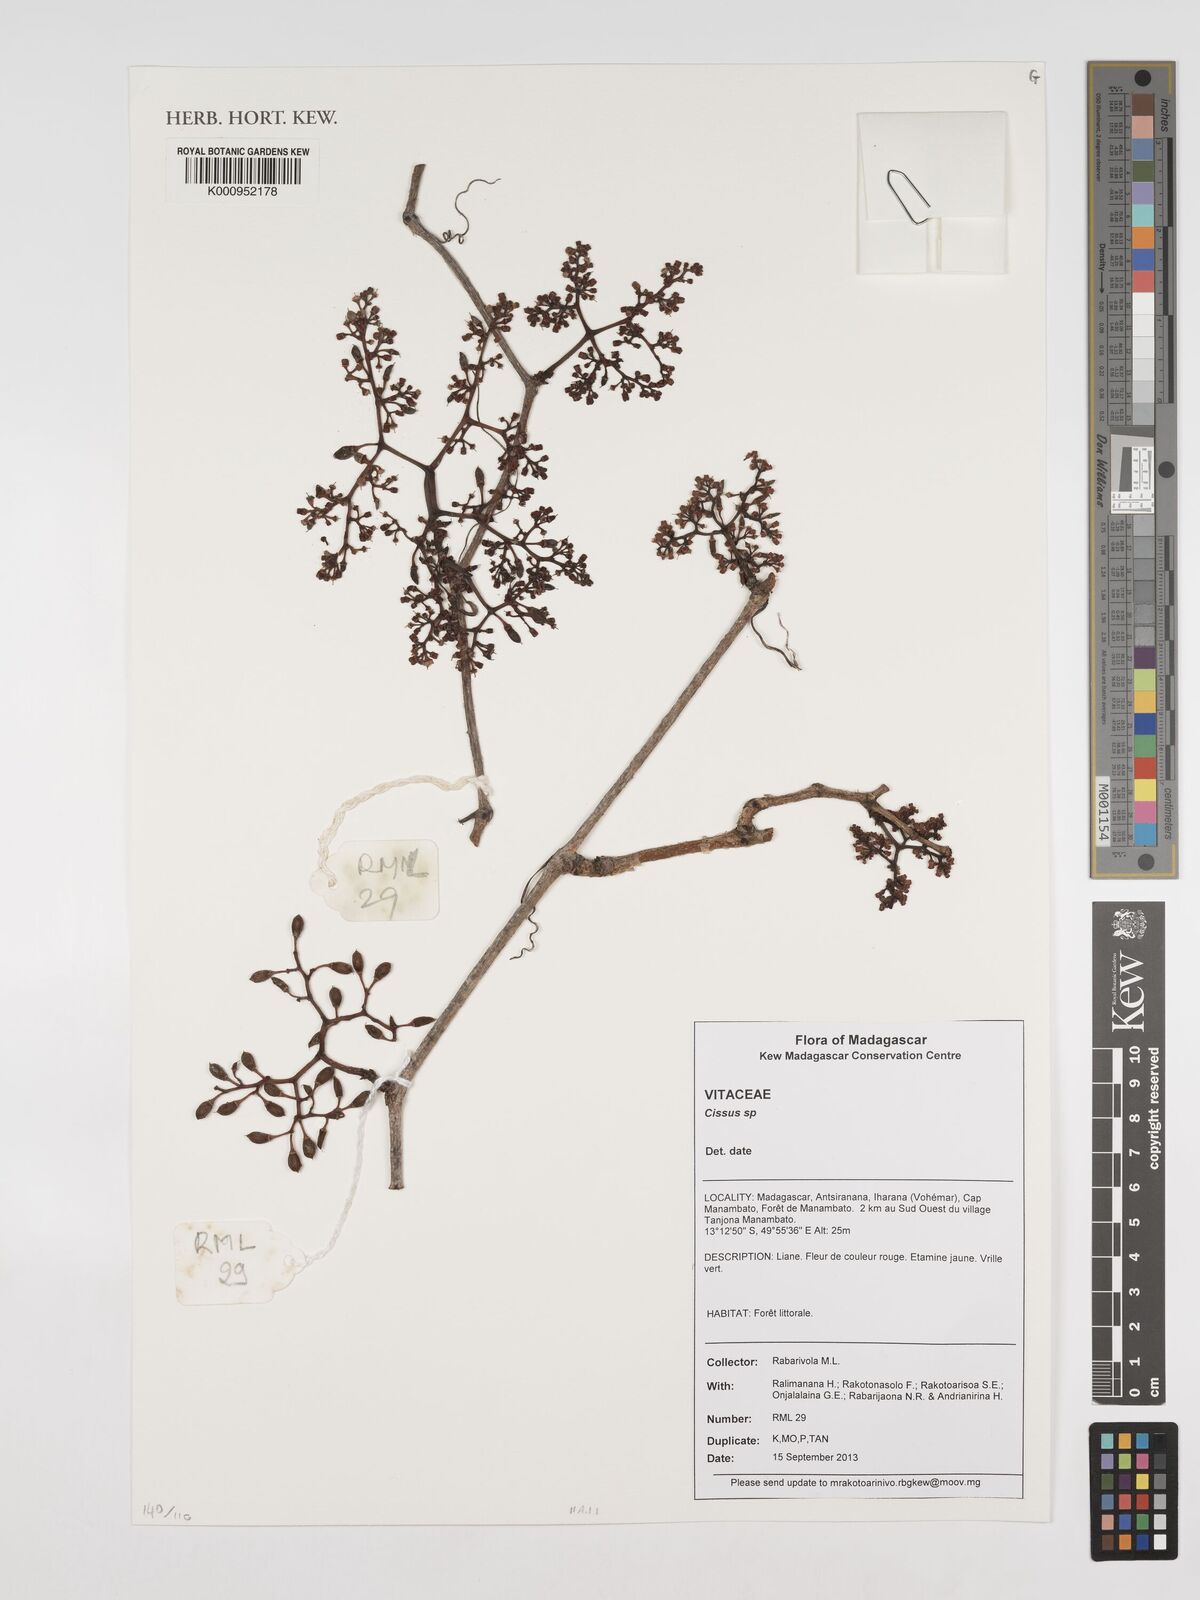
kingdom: Plantae
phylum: Tracheophyta
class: Magnoliopsida
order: Vitales
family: Vitaceae
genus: Cissus
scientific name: Cissus
